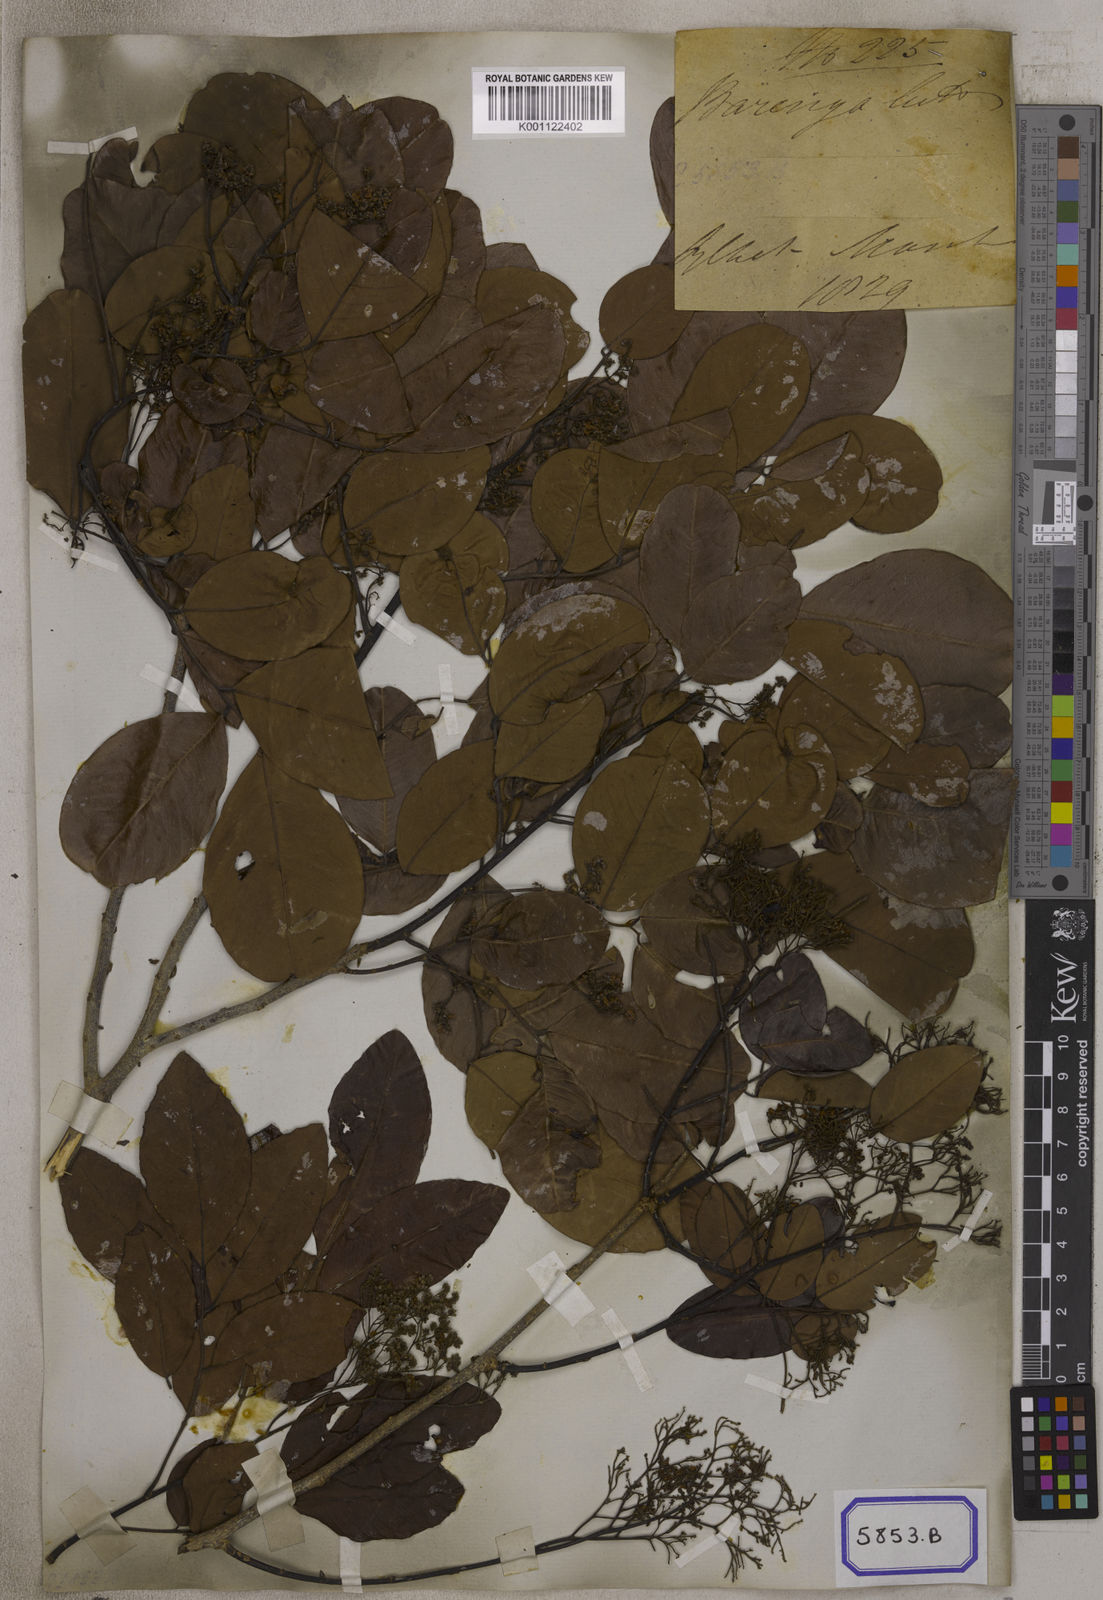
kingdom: Plantae
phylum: Tracheophyta
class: Magnoliopsida
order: Fabales
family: Fabaceae
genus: Dalbergia
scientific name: Dalbergia rimosa
